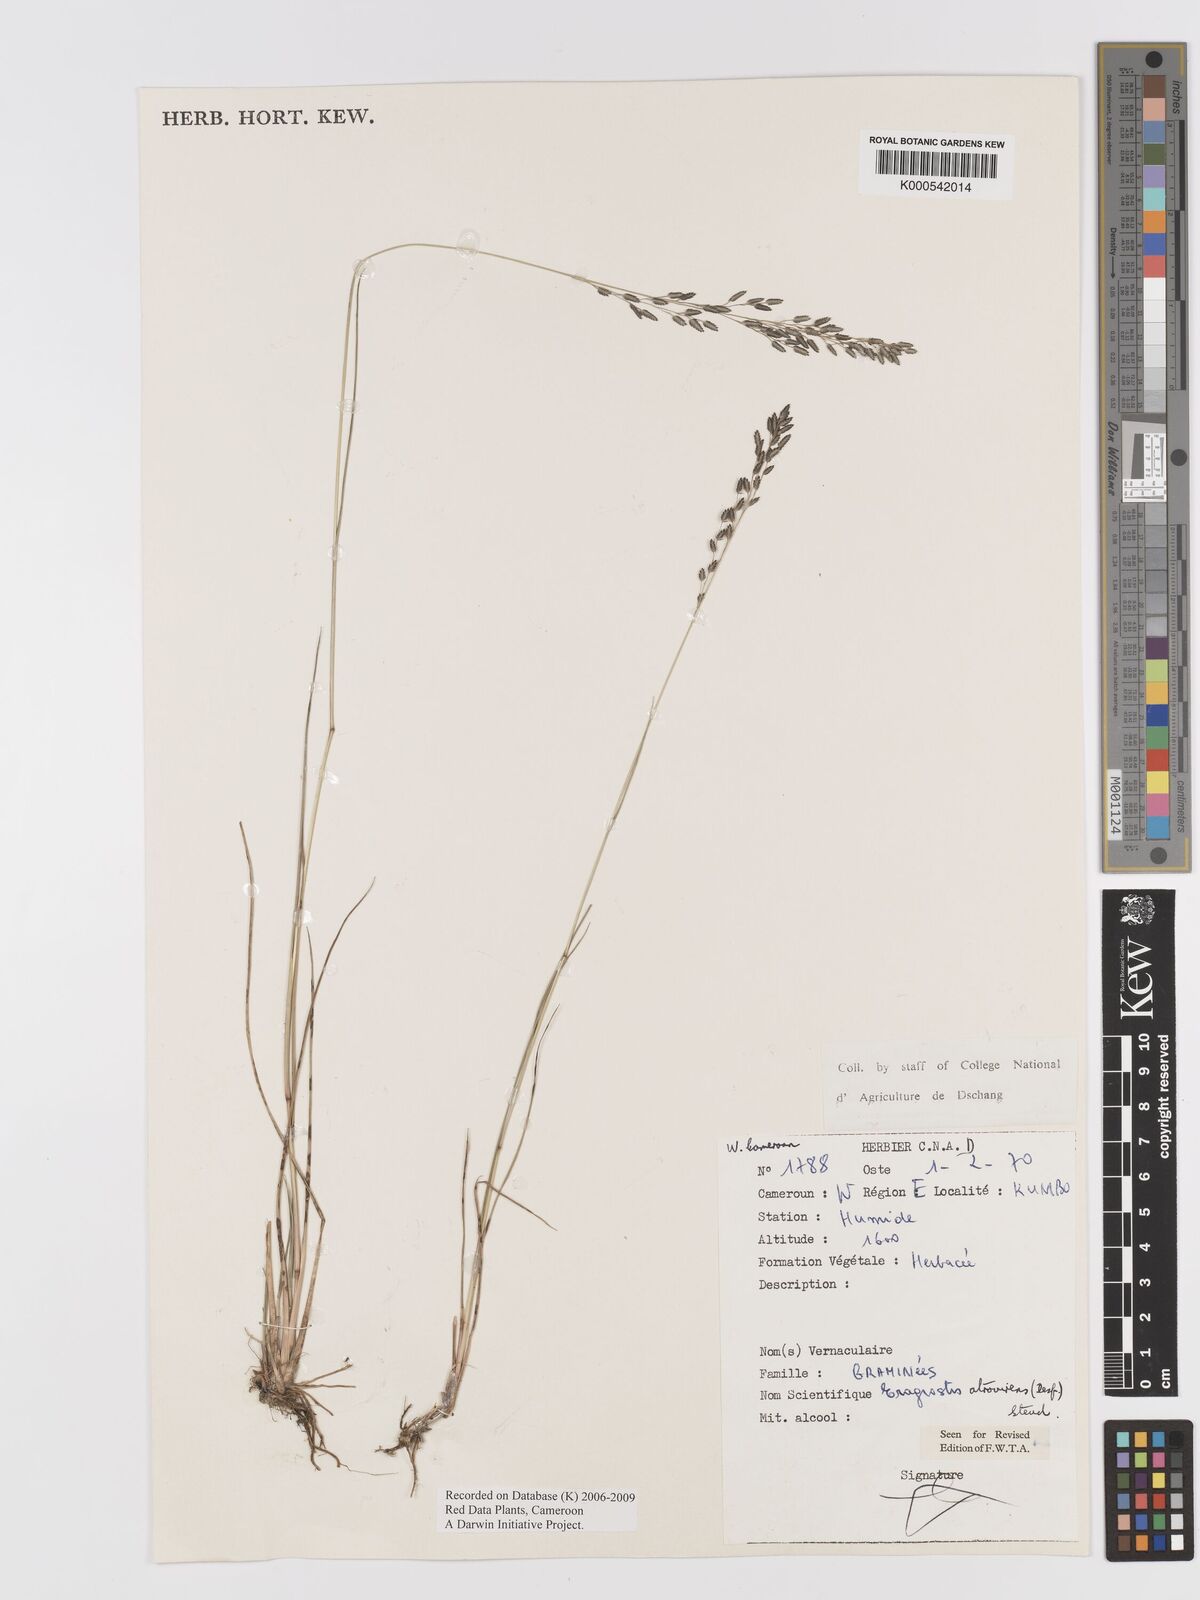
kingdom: Plantae
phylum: Tracheophyta
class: Liliopsida
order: Poales
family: Poaceae
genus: Eragrostis
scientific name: Eragrostis camerunensis
